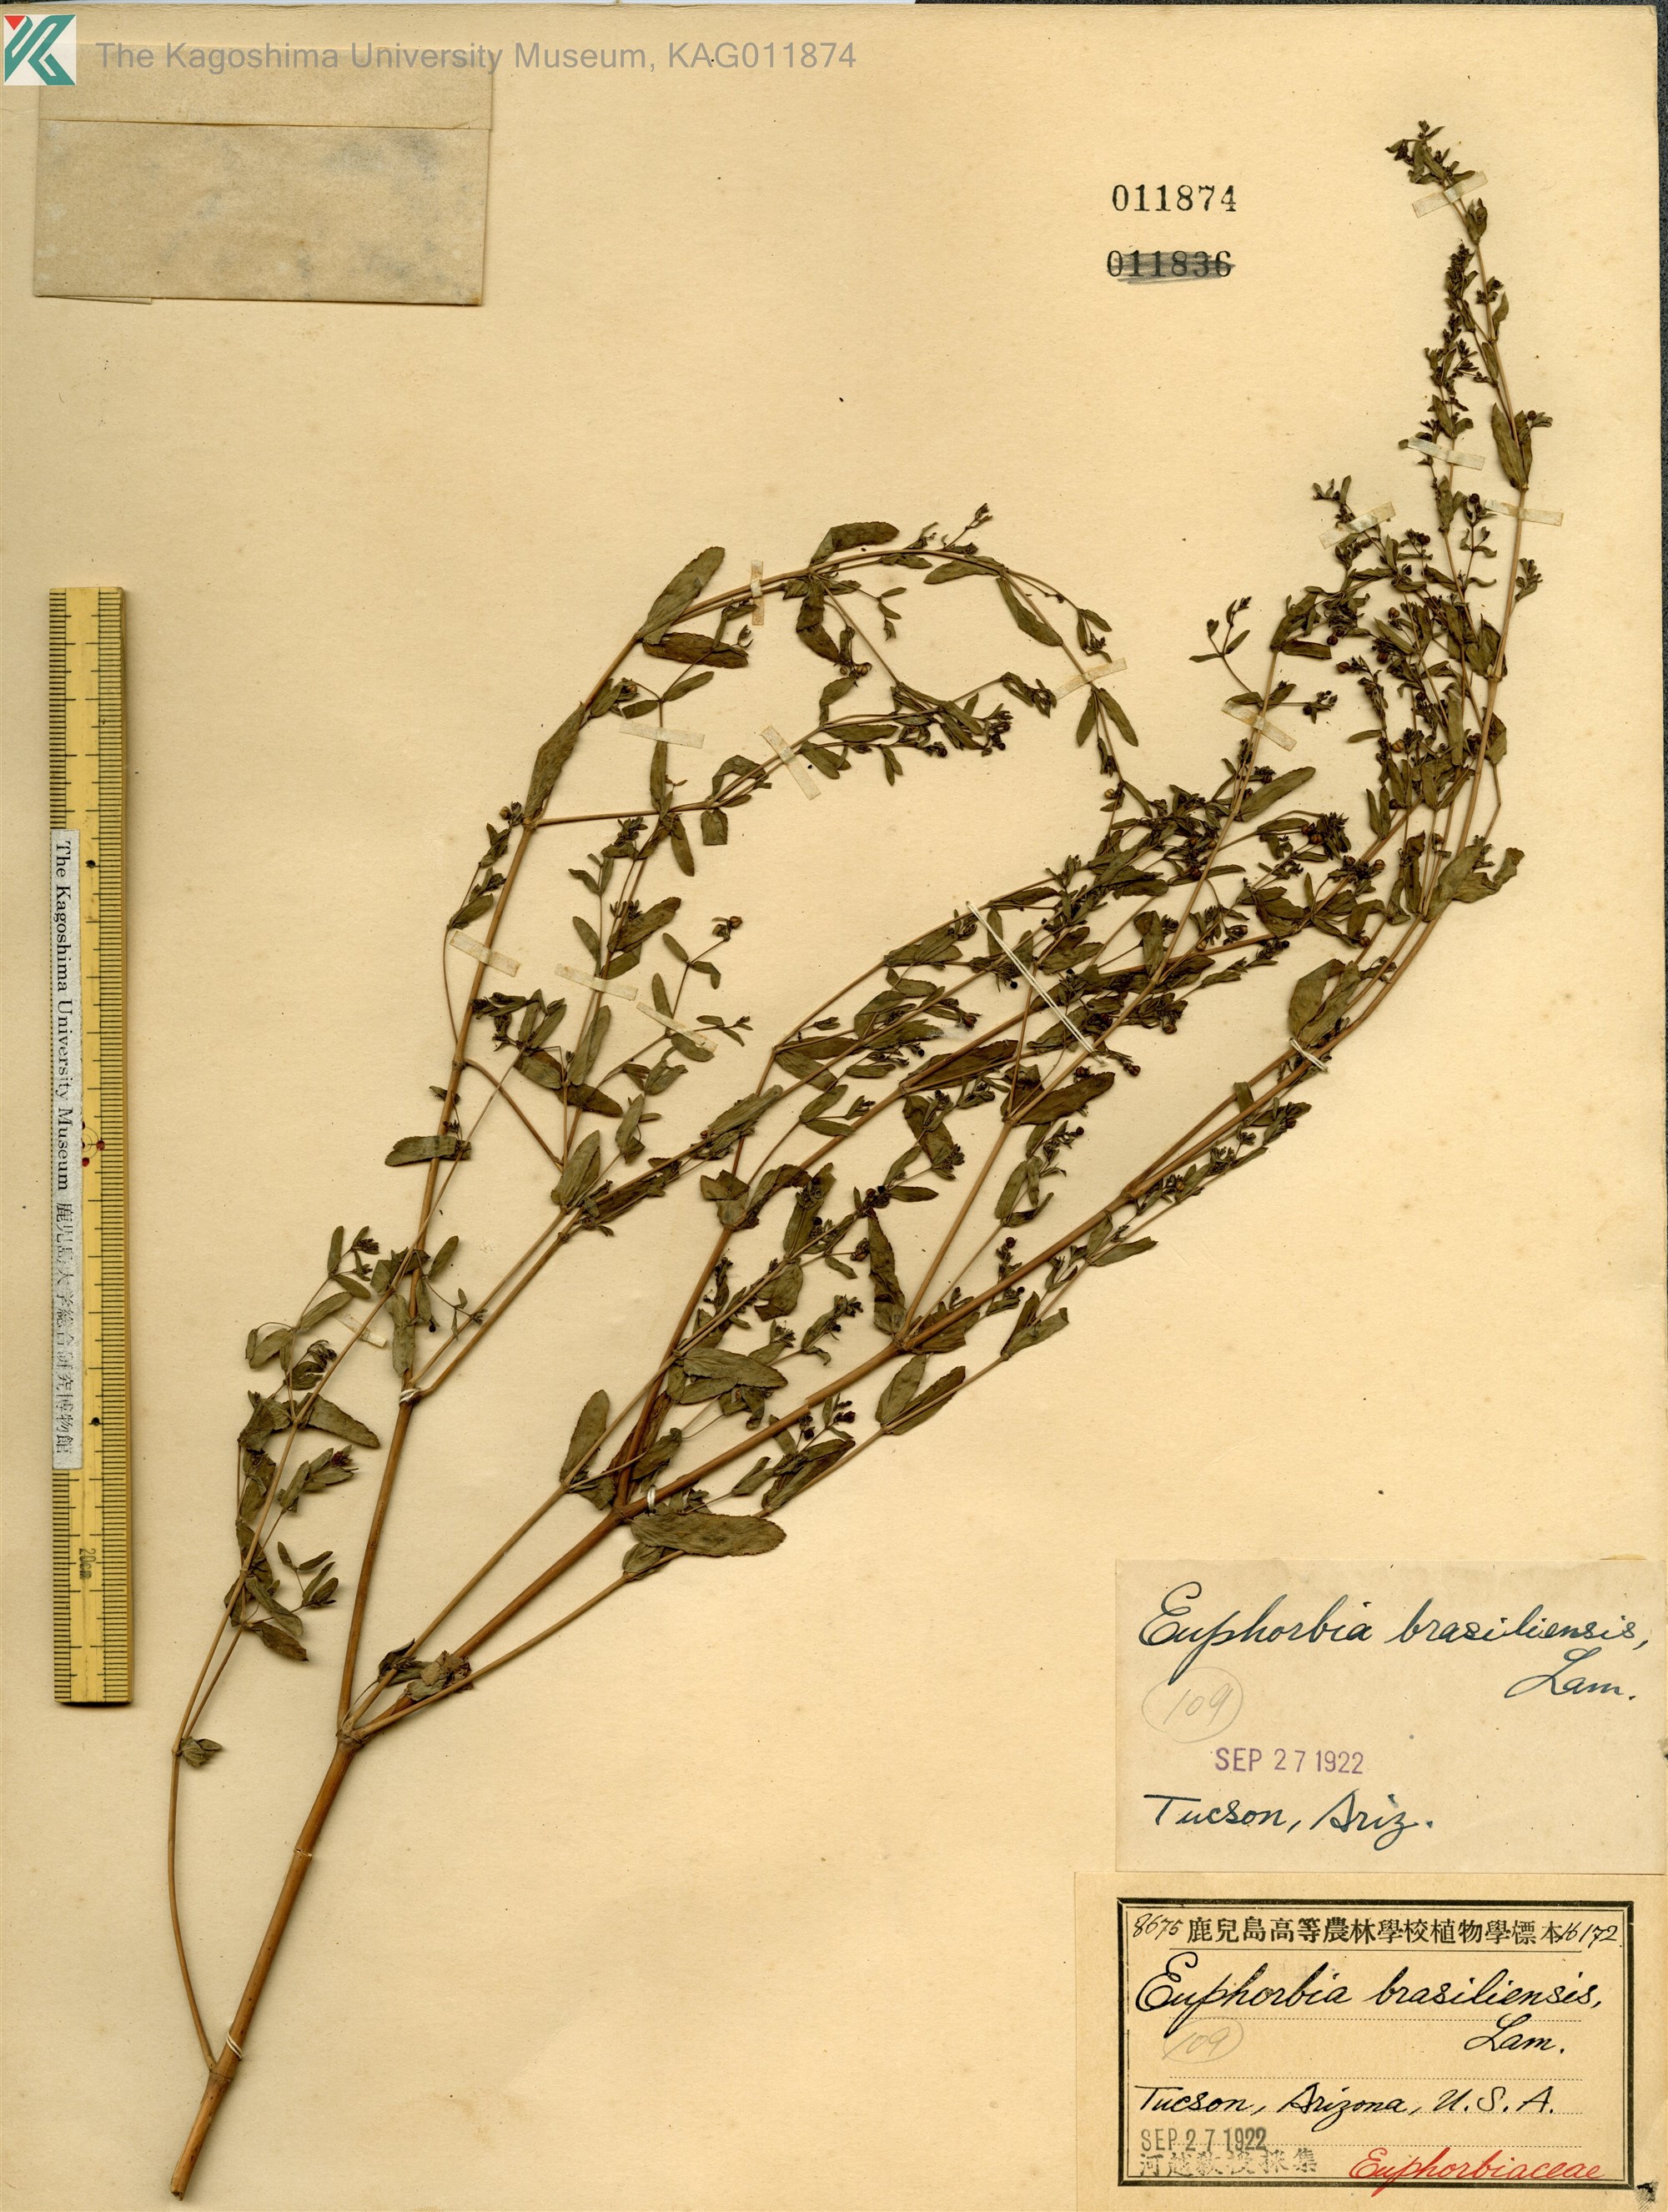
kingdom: Plantae
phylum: Tracheophyta
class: Magnoliopsida
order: Malpighiales
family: Euphorbiaceae
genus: Euphorbia
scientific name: Euphorbia hyssopifolia
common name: Hyssopleaf sandmat
